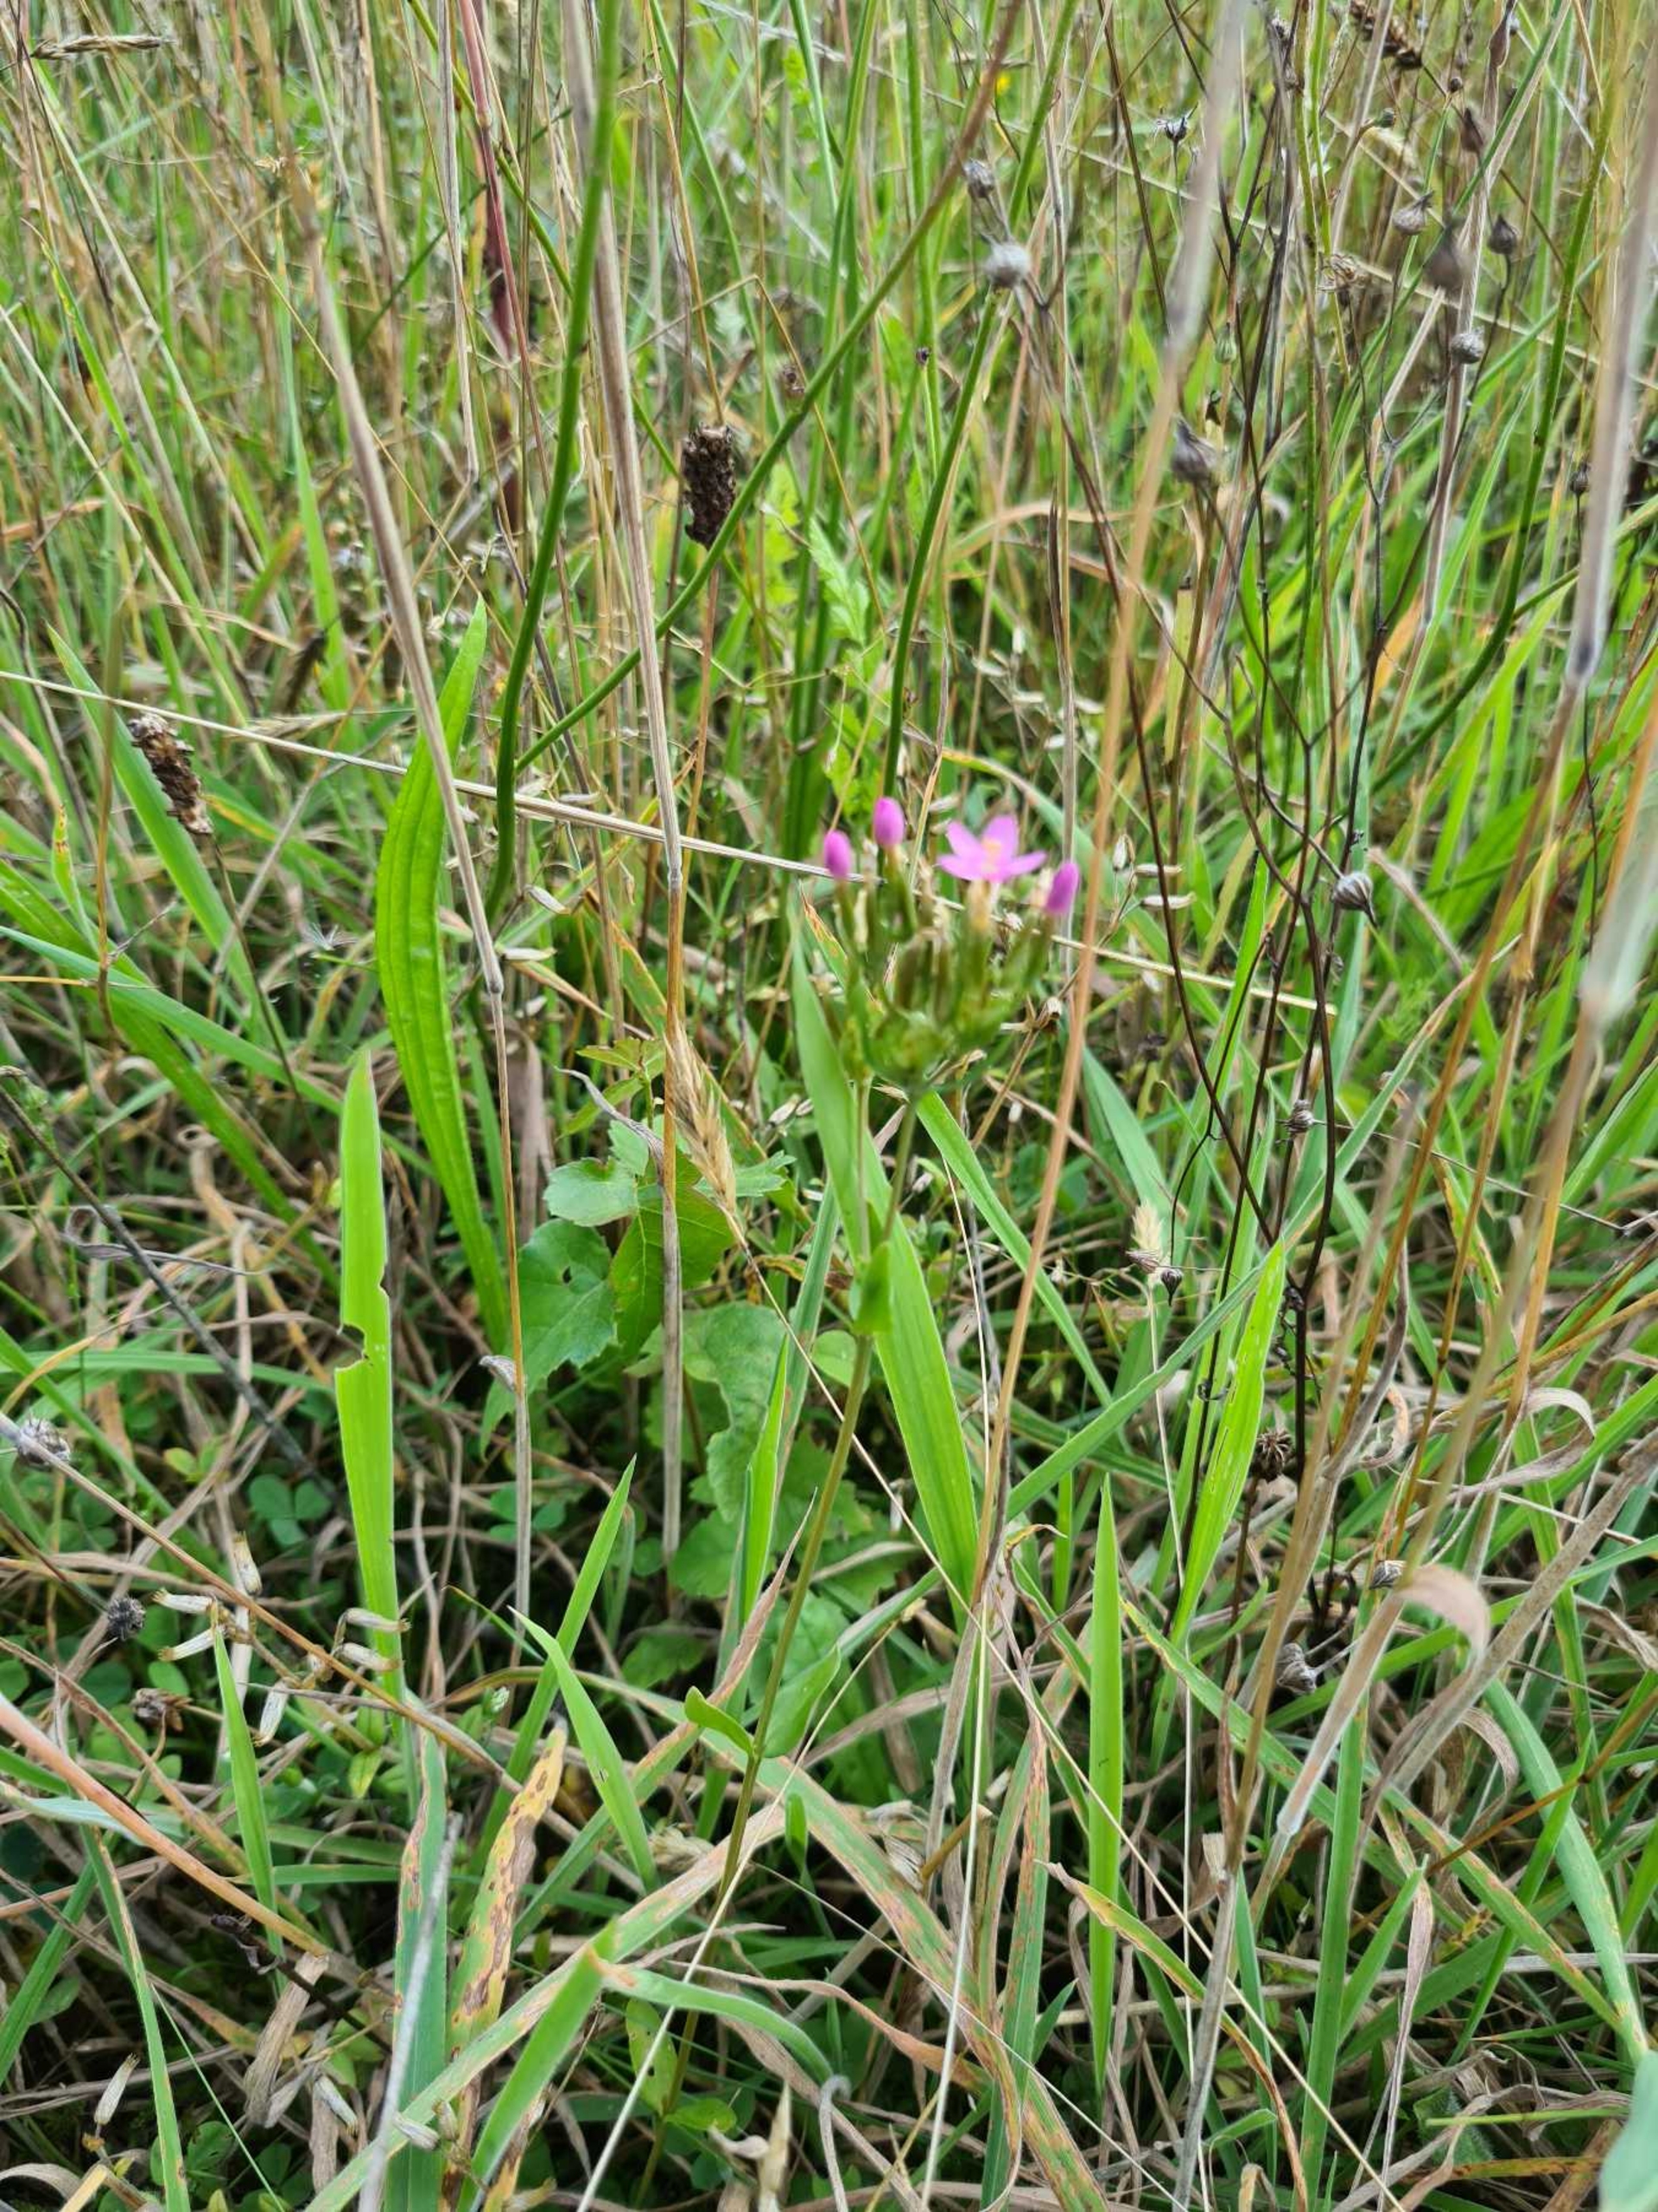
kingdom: Plantae
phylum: Tracheophyta
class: Magnoliopsida
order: Gentianales
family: Gentianaceae
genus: Centaurium
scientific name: Centaurium erythraea
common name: Mark-tusindgylden
